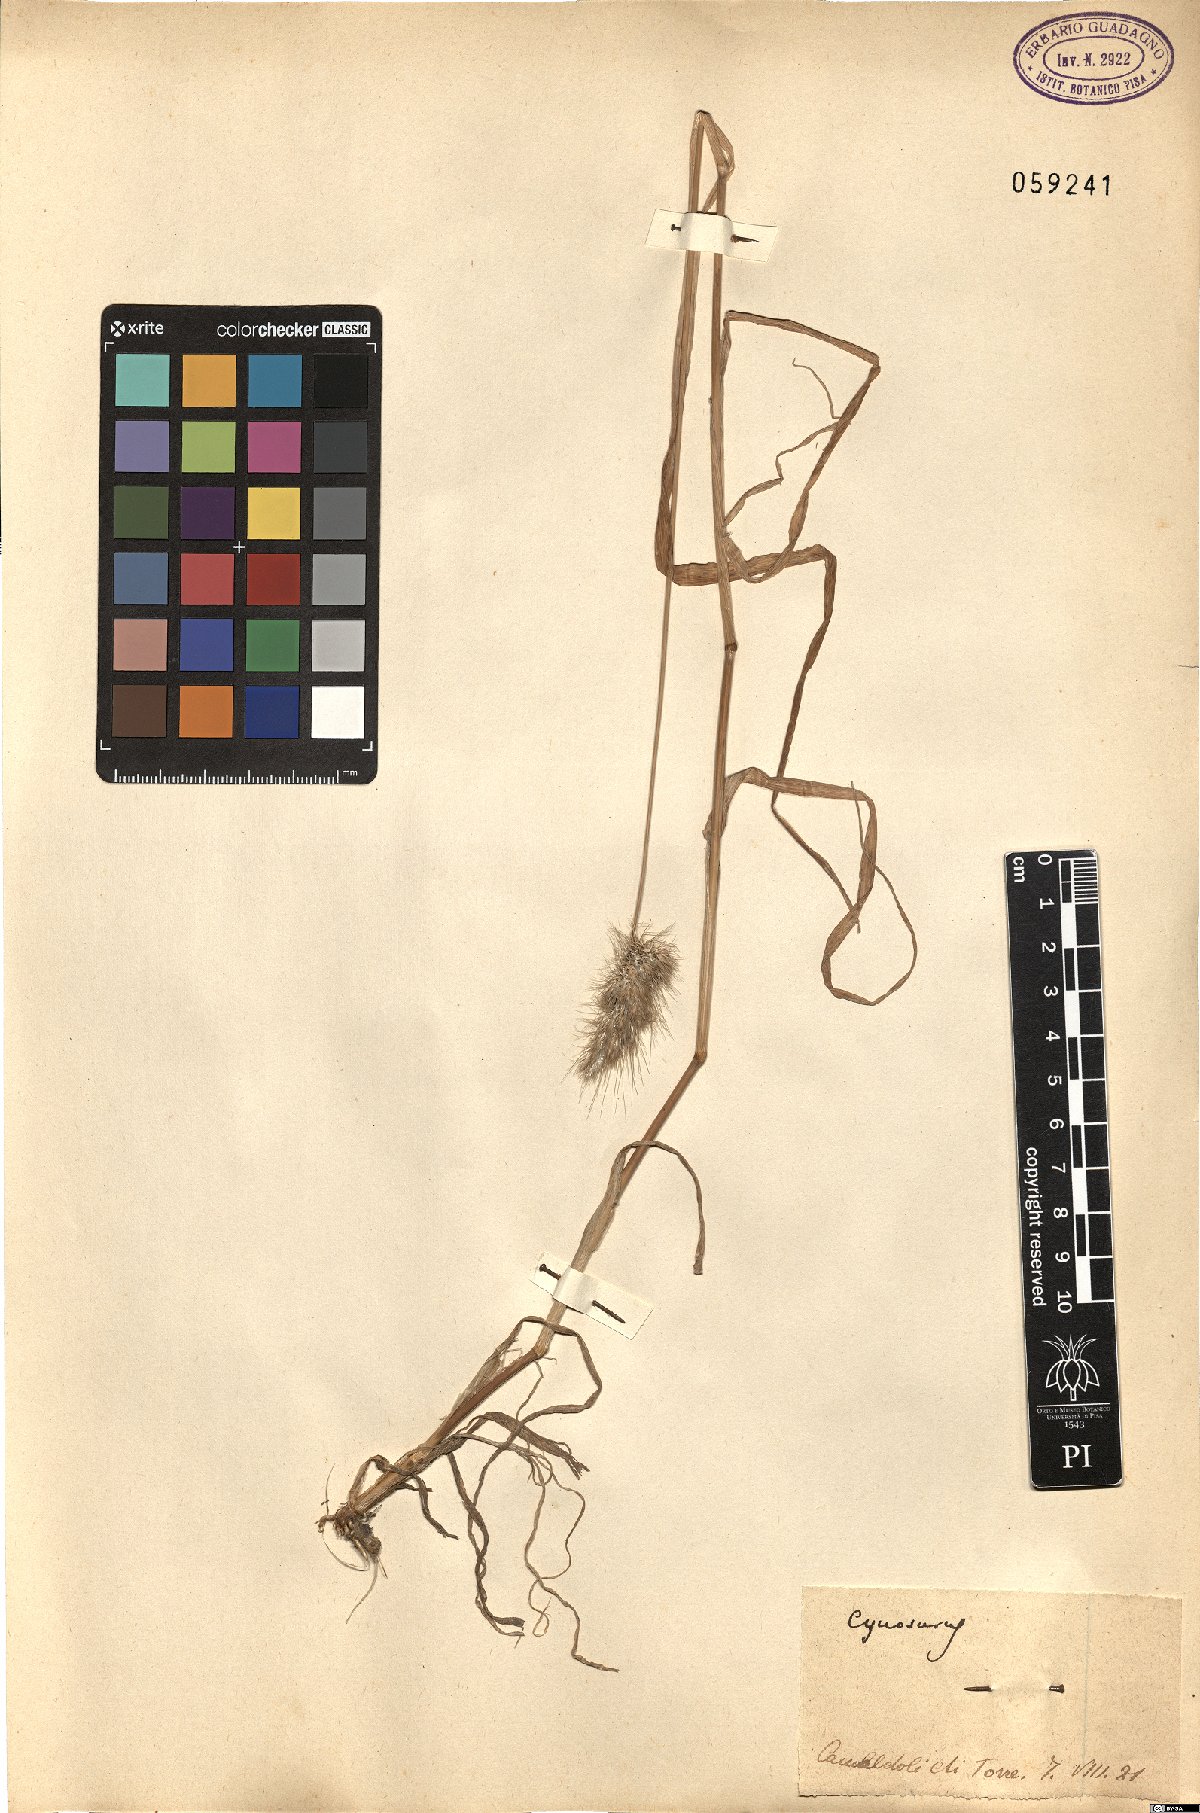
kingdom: Plantae
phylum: Tracheophyta
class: Liliopsida
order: Poales
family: Poaceae
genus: Cynosurus
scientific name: Cynosurus
